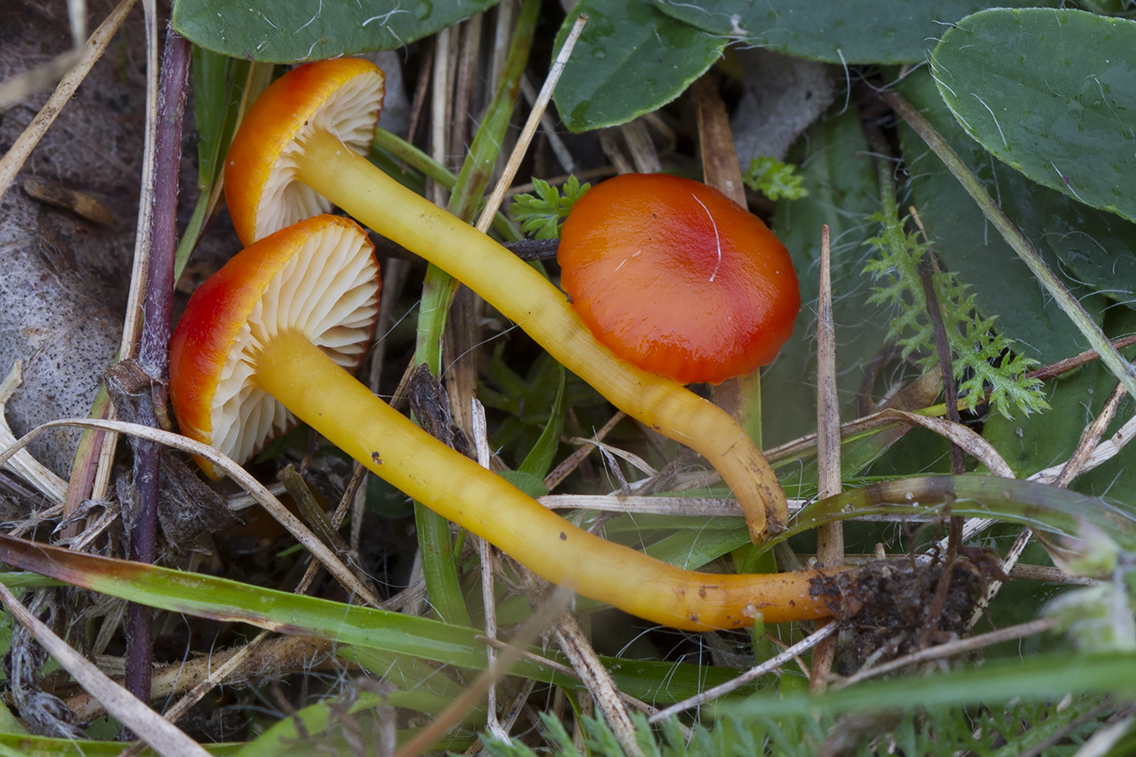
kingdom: Fungi
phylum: Basidiomycota
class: Agaricomycetes
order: Agaricales
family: Hygrophoraceae
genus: Hygrocybe
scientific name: Hygrocybe insipida
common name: liden vokshat
